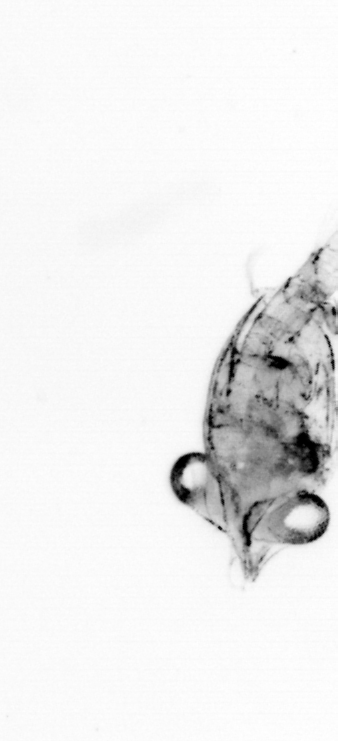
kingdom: Animalia
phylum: Chordata
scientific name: Chordata
